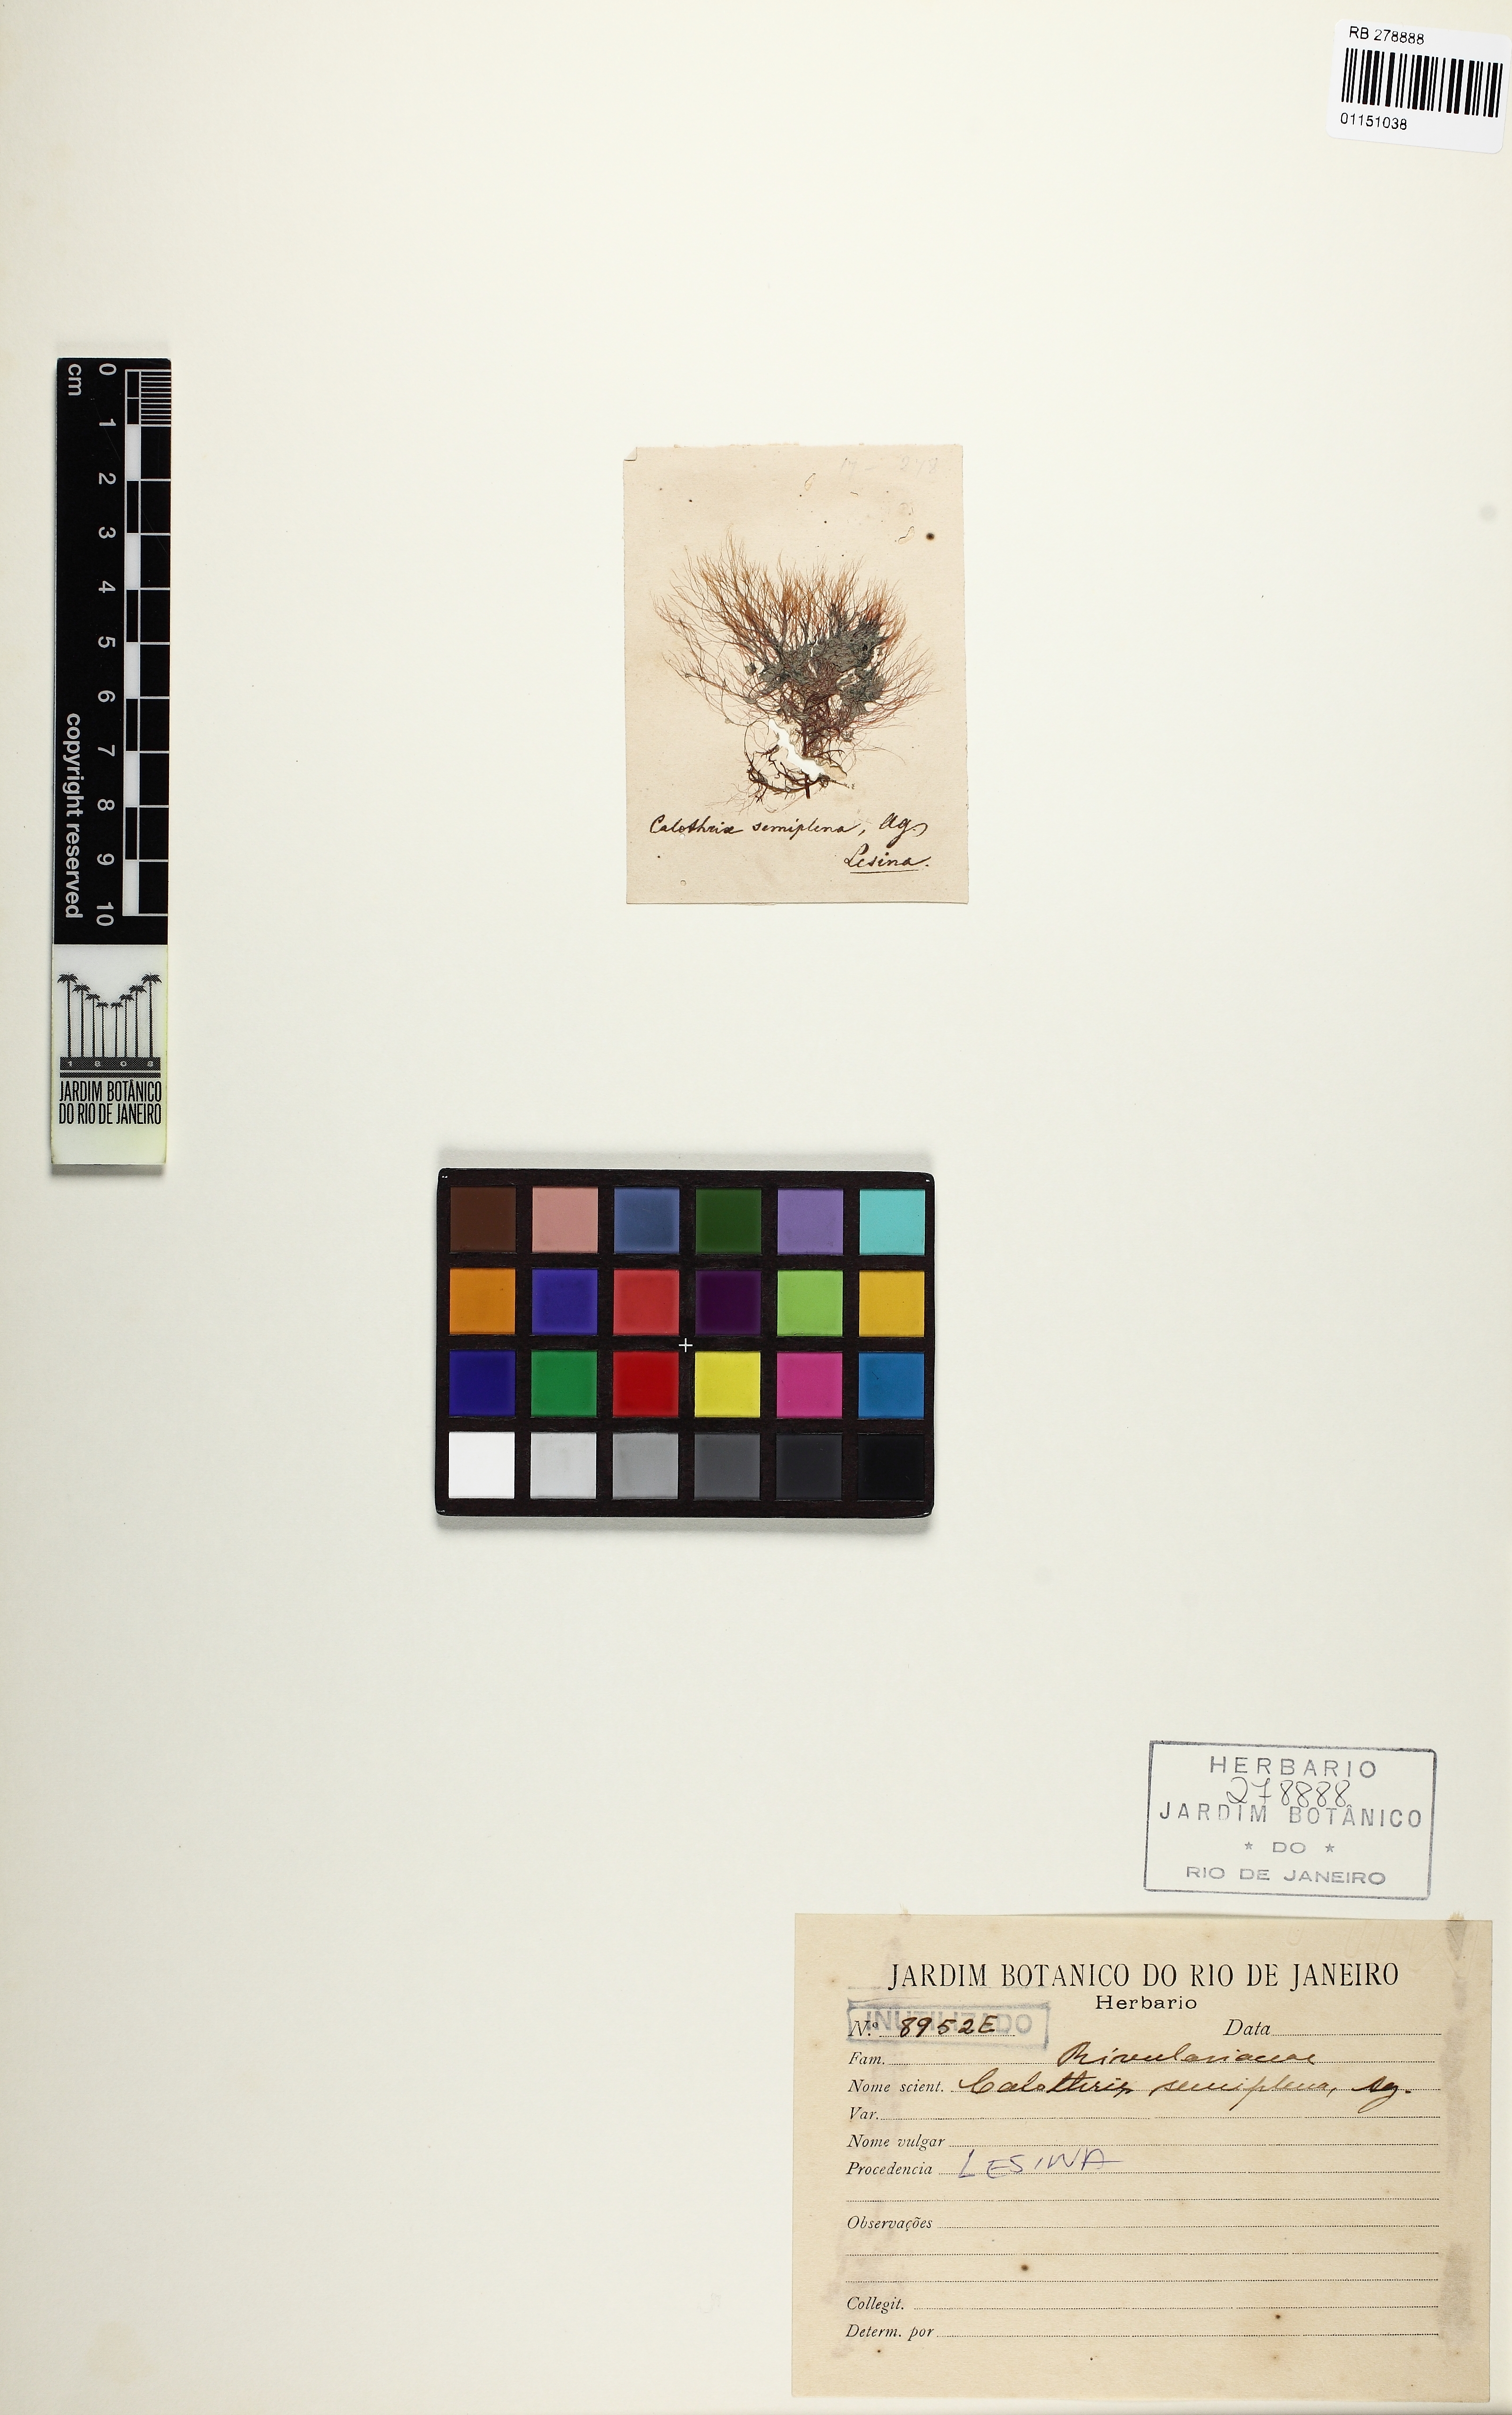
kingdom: Bacteria
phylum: Cyanobacteria
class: Cyanobacteriia
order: Cyanobacteriales
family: Microcoleaceae
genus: Lyngbya
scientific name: Lyngbya semiplena
